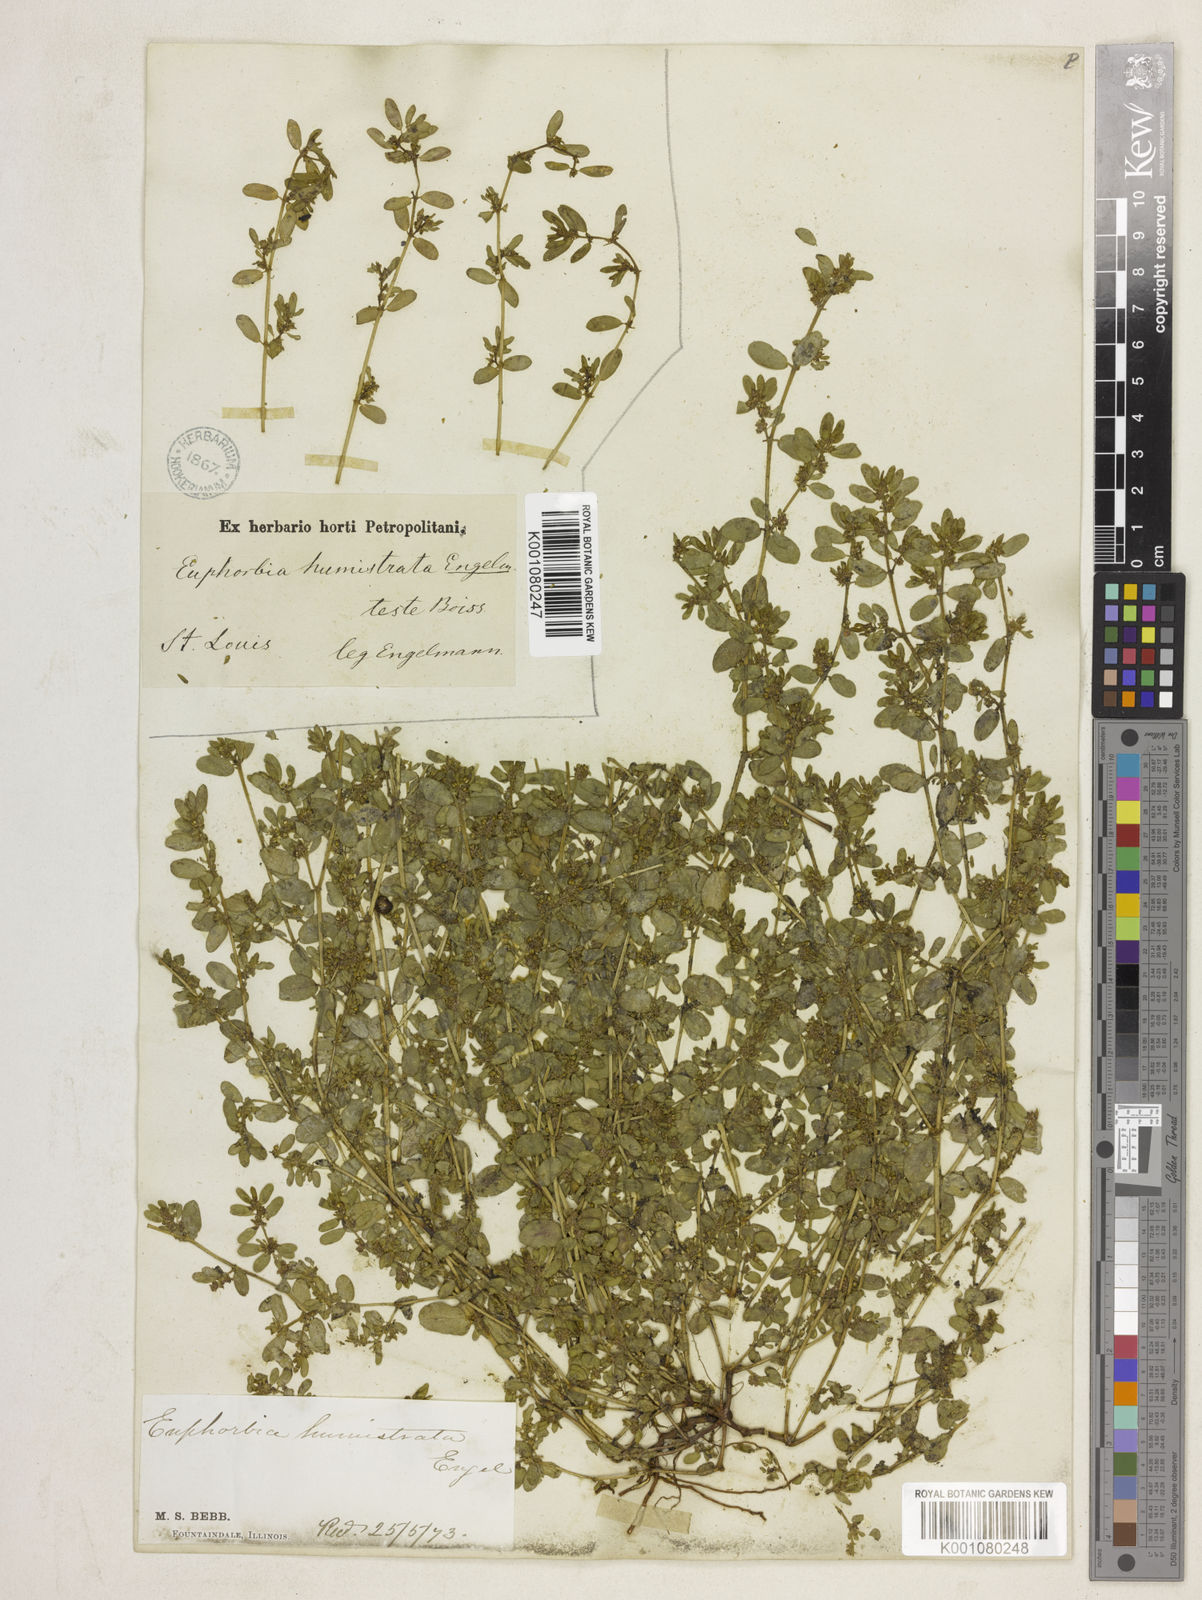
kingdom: Plantae
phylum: Tracheophyta
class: Magnoliopsida
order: Malpighiales
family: Euphorbiaceae
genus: Euphorbia
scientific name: Euphorbia
